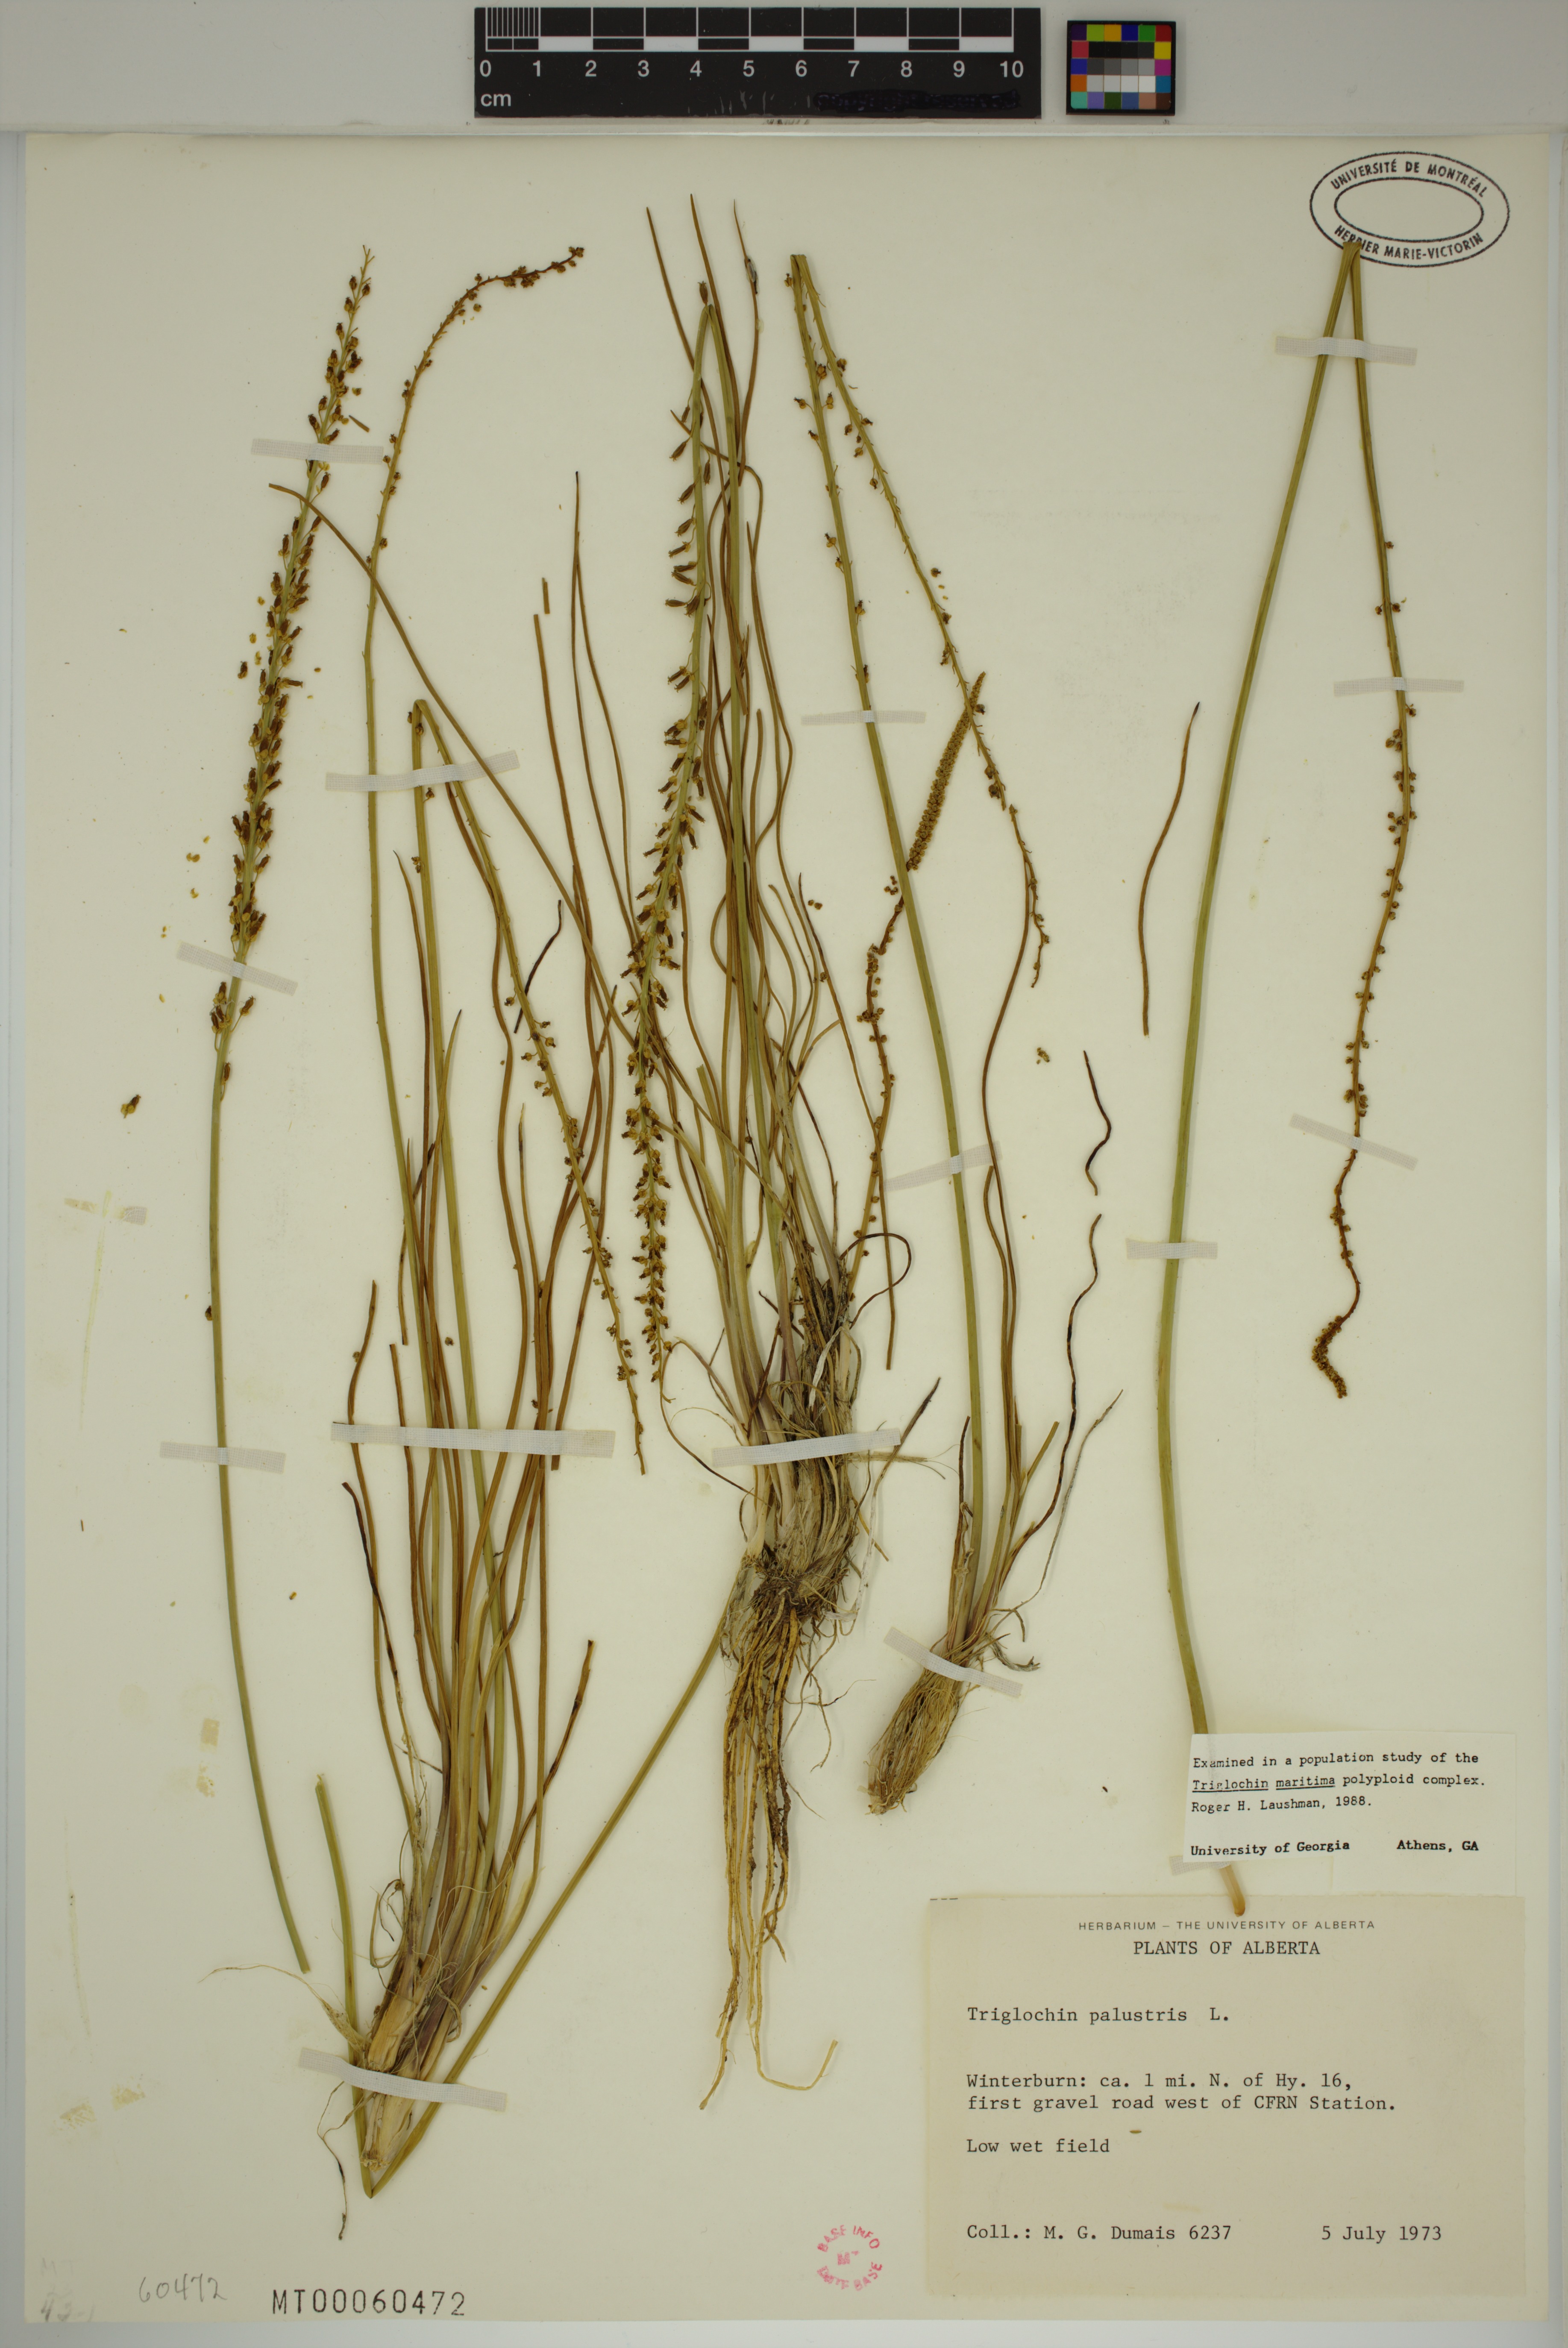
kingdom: Plantae
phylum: Tracheophyta
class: Liliopsida
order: Alismatales
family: Juncaginaceae
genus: Triglochin
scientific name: Triglochin palustris
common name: Marsh arrowgrass
